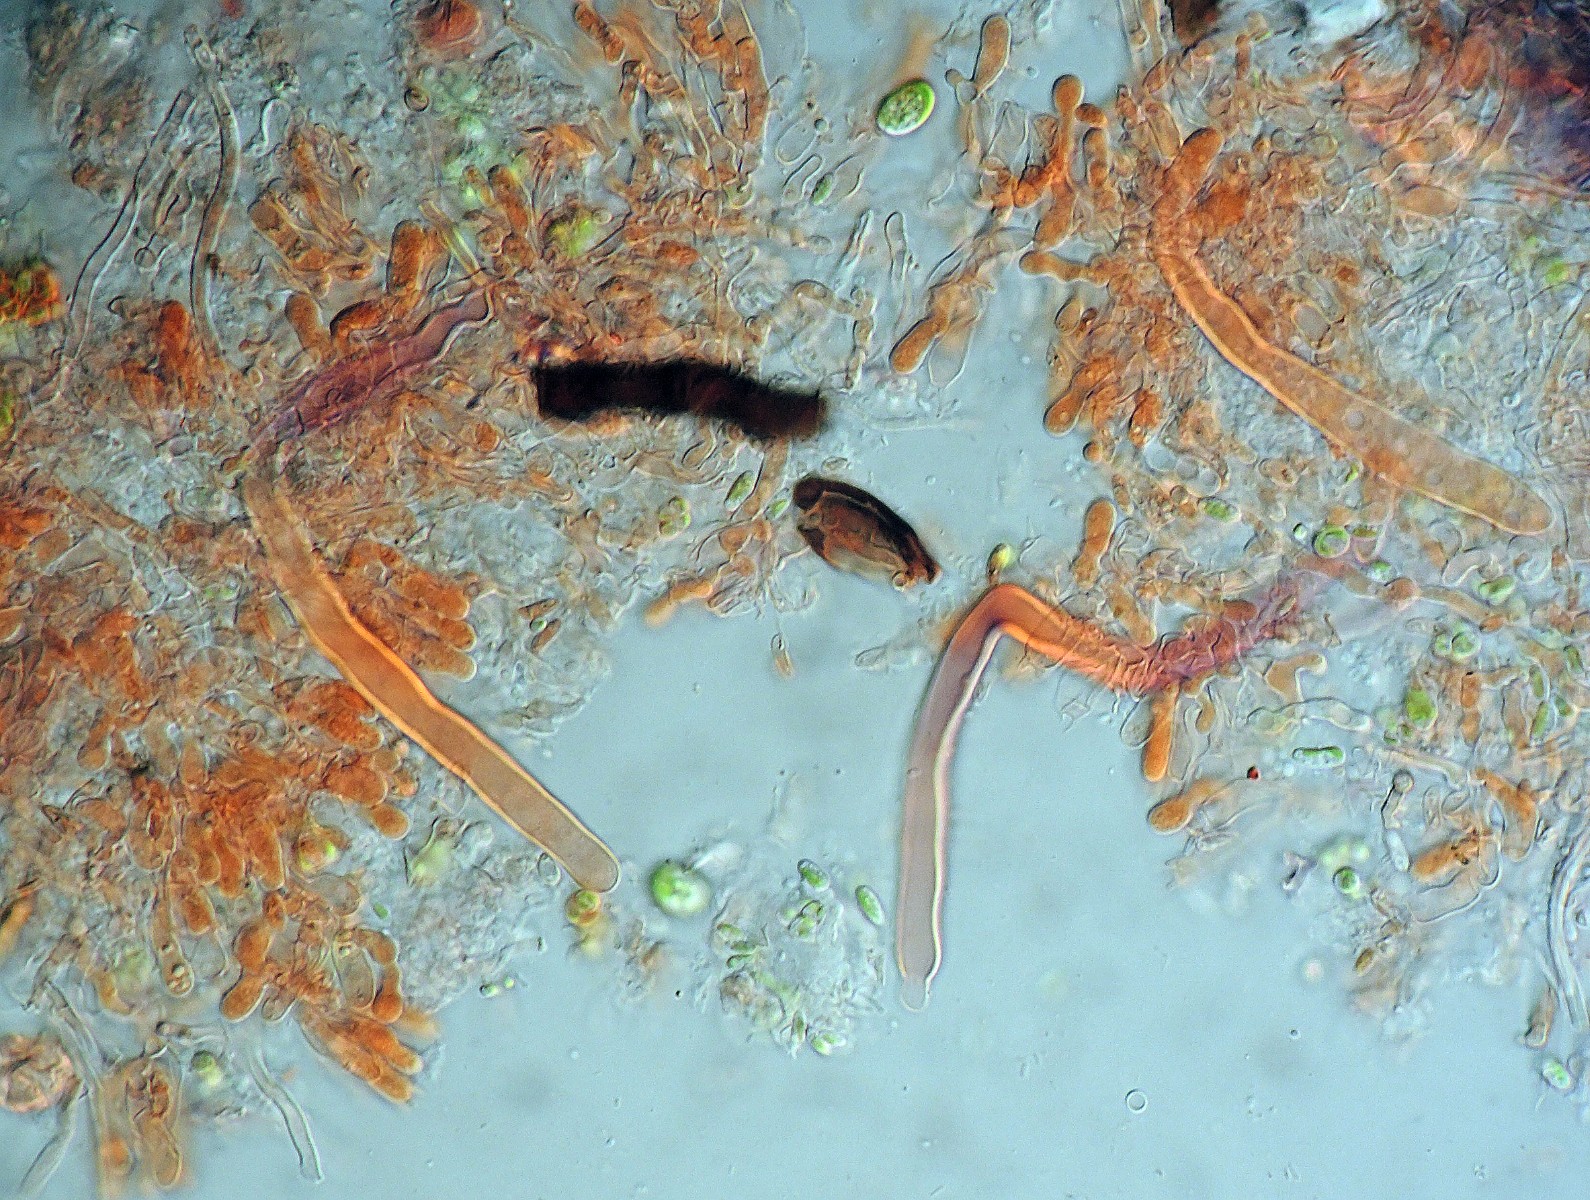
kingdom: Fungi
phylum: Basidiomycota
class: Agaricomycetes
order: Hymenochaetales
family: Hyphodontiaceae
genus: Kneiffiella
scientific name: Kneiffiella cineracea
